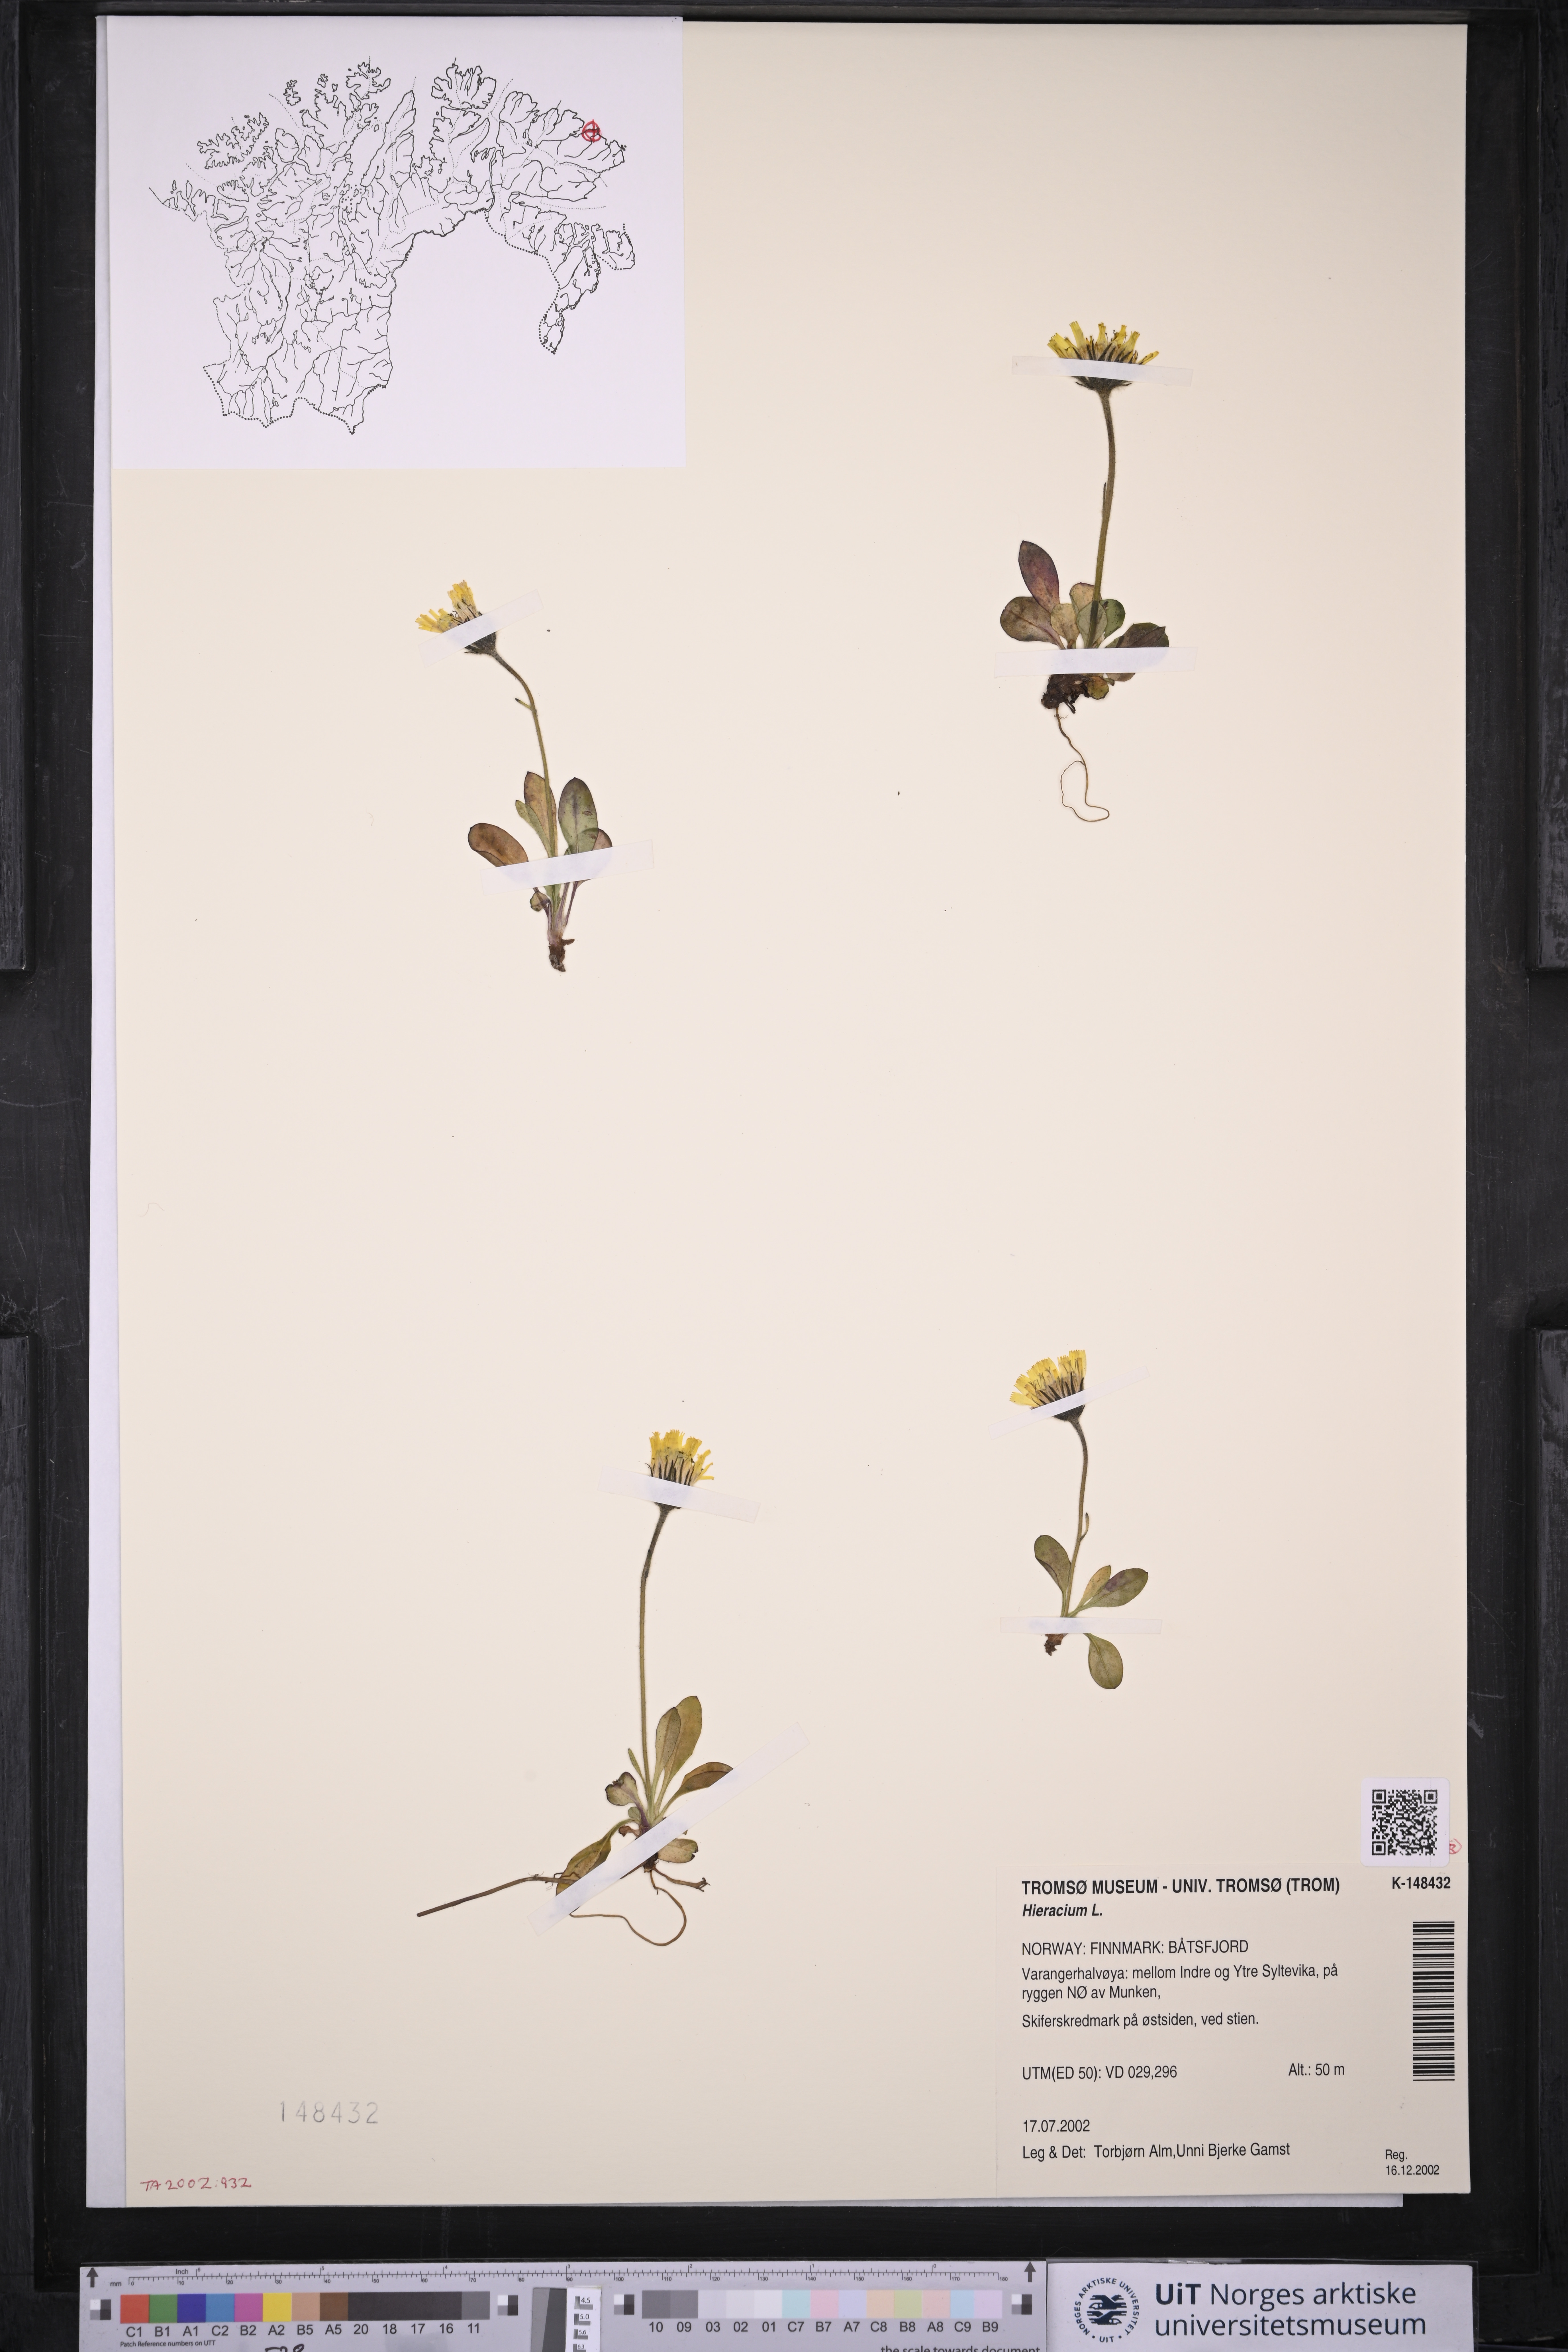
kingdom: Plantae
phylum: Tracheophyta
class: Magnoliopsida
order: Asterales
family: Asteraceae
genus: Hieracium
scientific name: Hieracium
